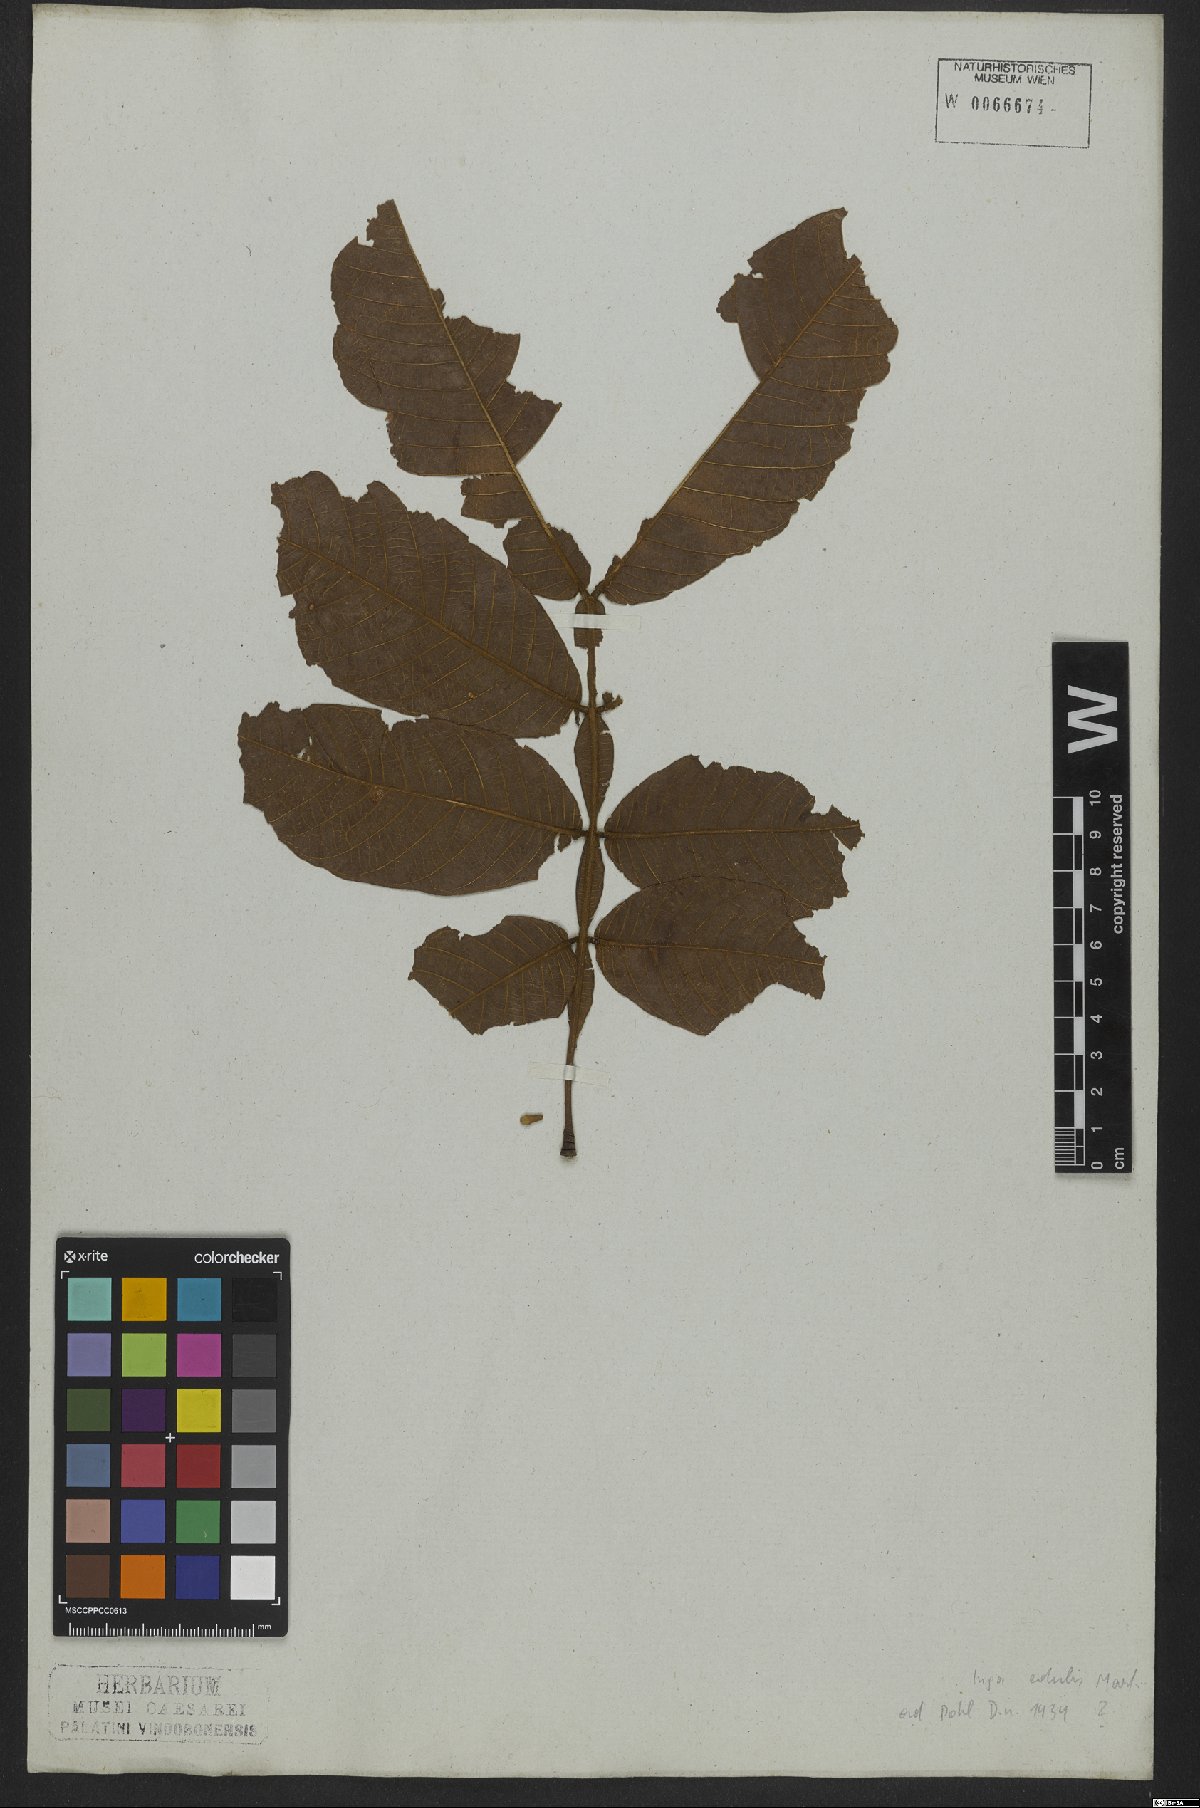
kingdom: Plantae
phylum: Tracheophyta
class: Magnoliopsida
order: Fabales
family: Fabaceae
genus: Inga
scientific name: Inga edulis
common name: Ice cream bean
